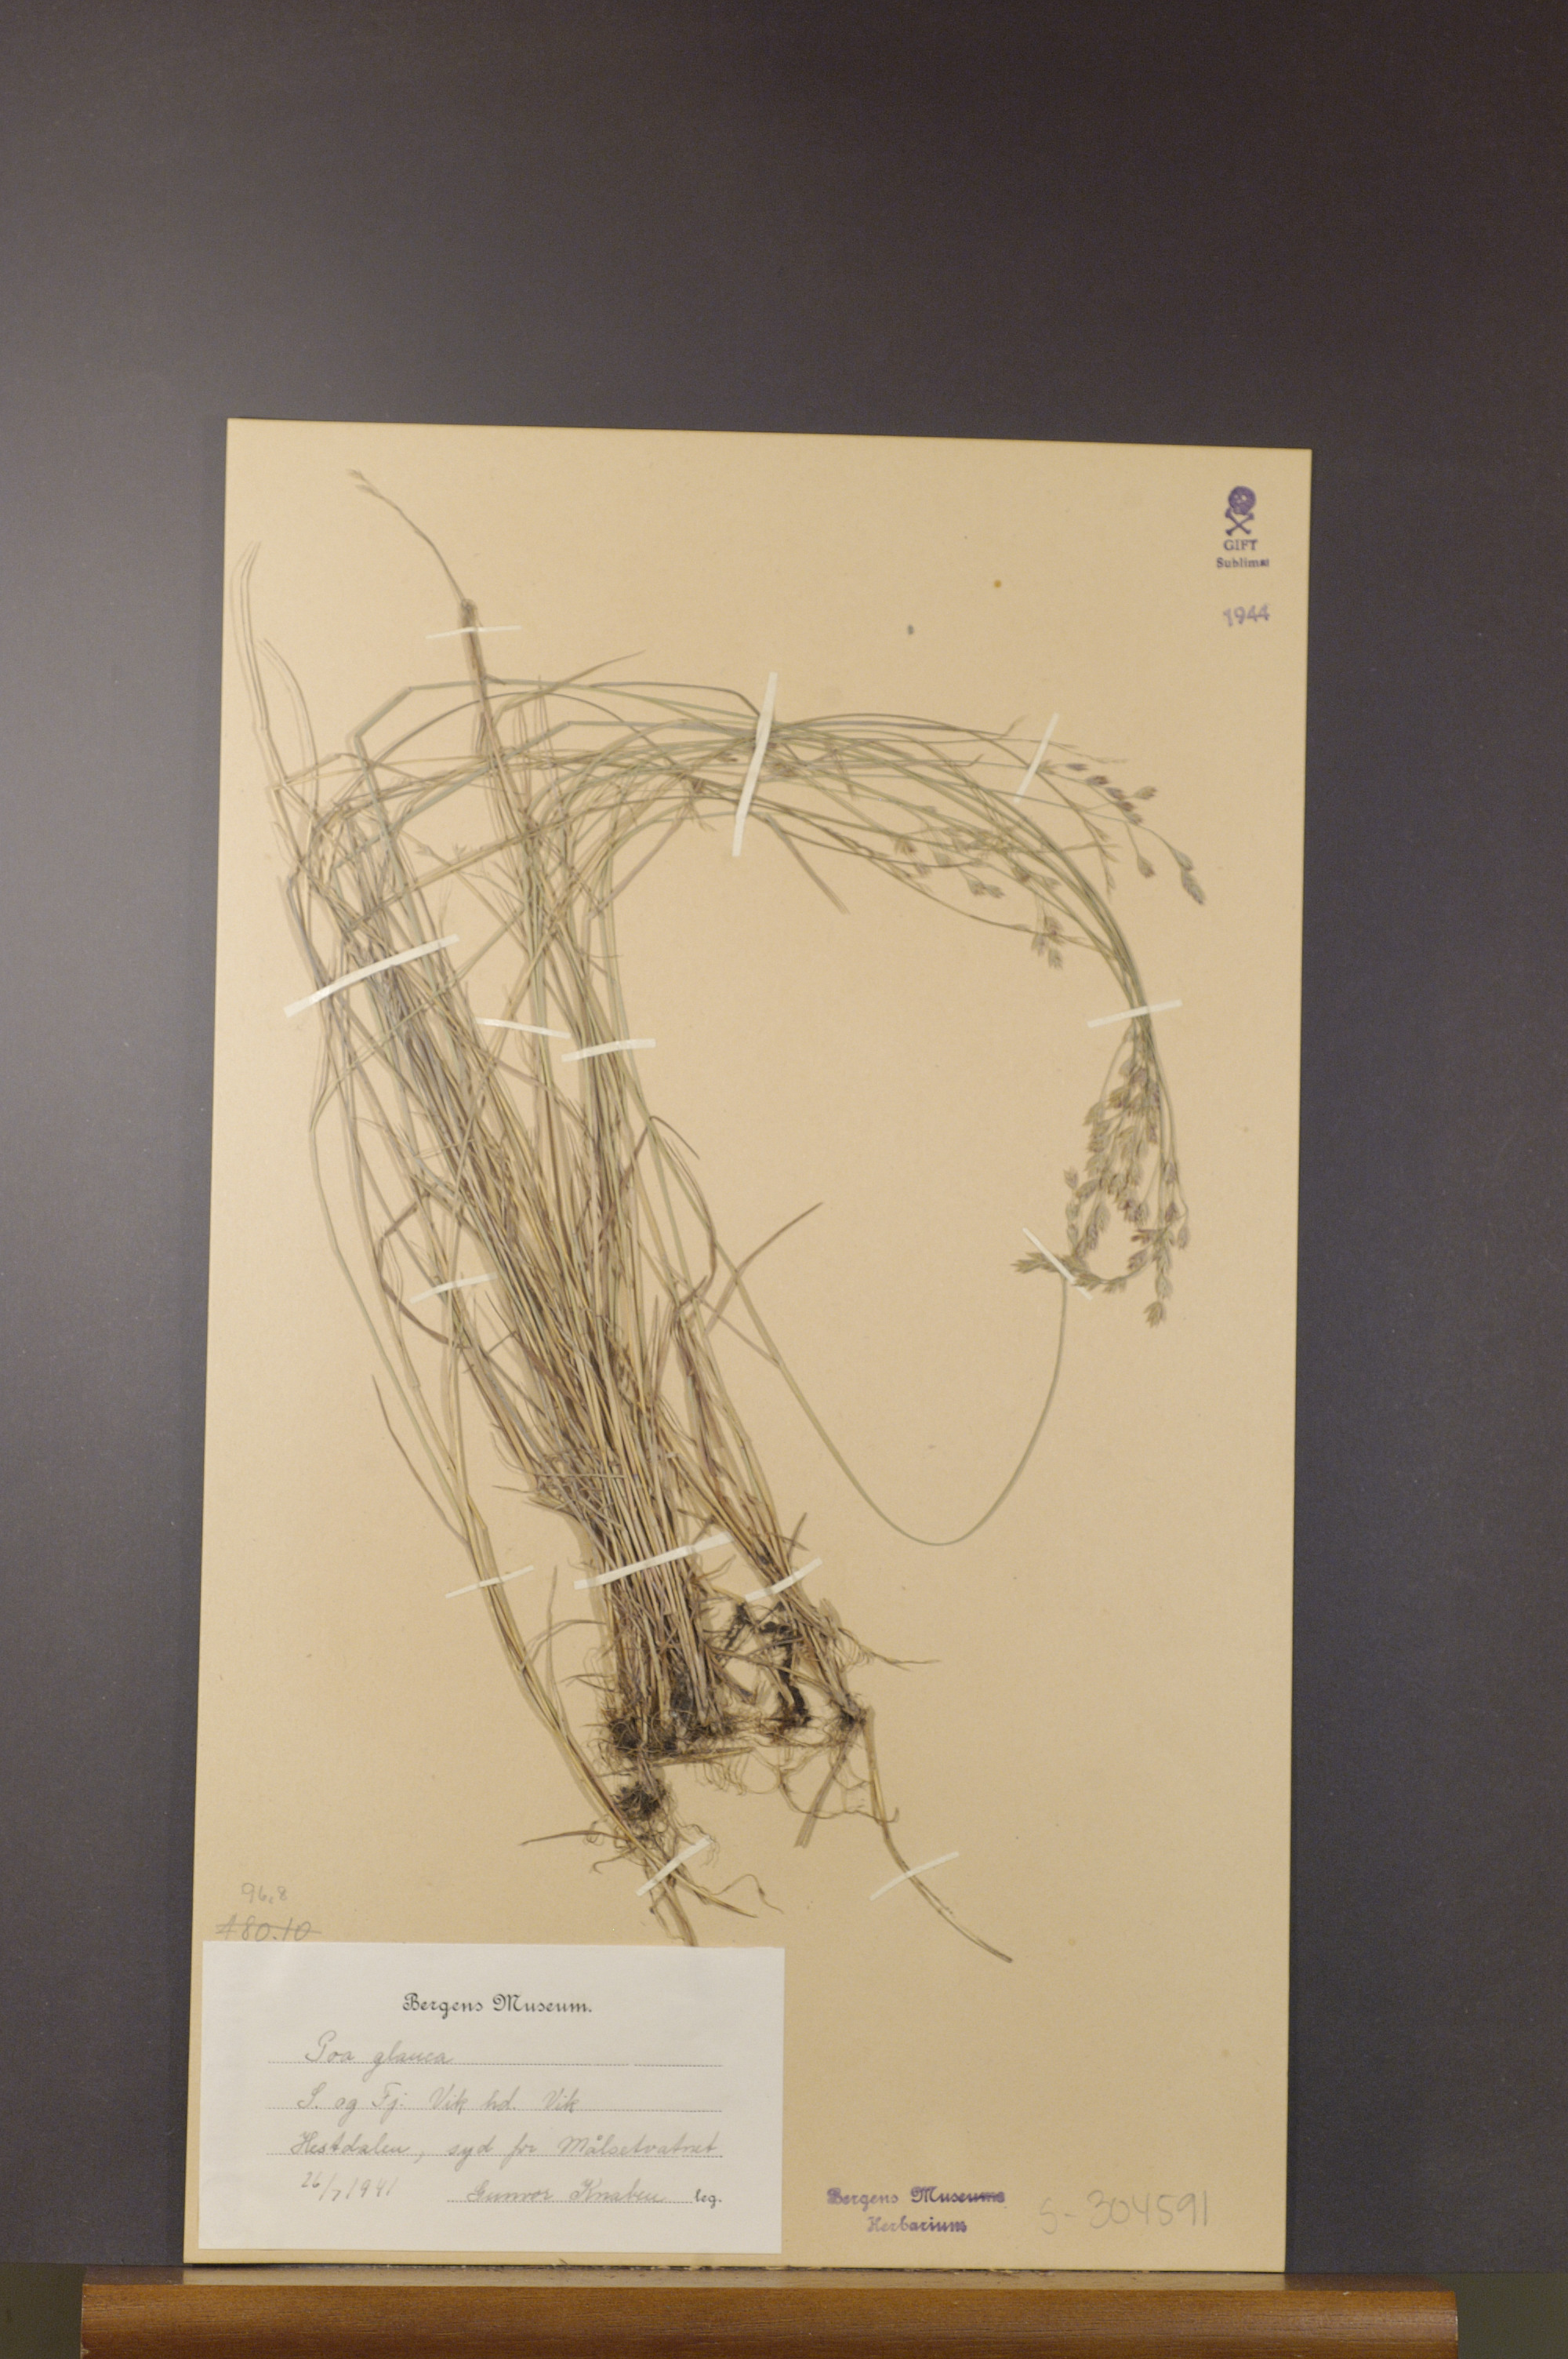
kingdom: Plantae
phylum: Tracheophyta
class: Liliopsida
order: Poales
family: Poaceae
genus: Poa
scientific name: Poa glauca
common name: Glaucous bluegrass
